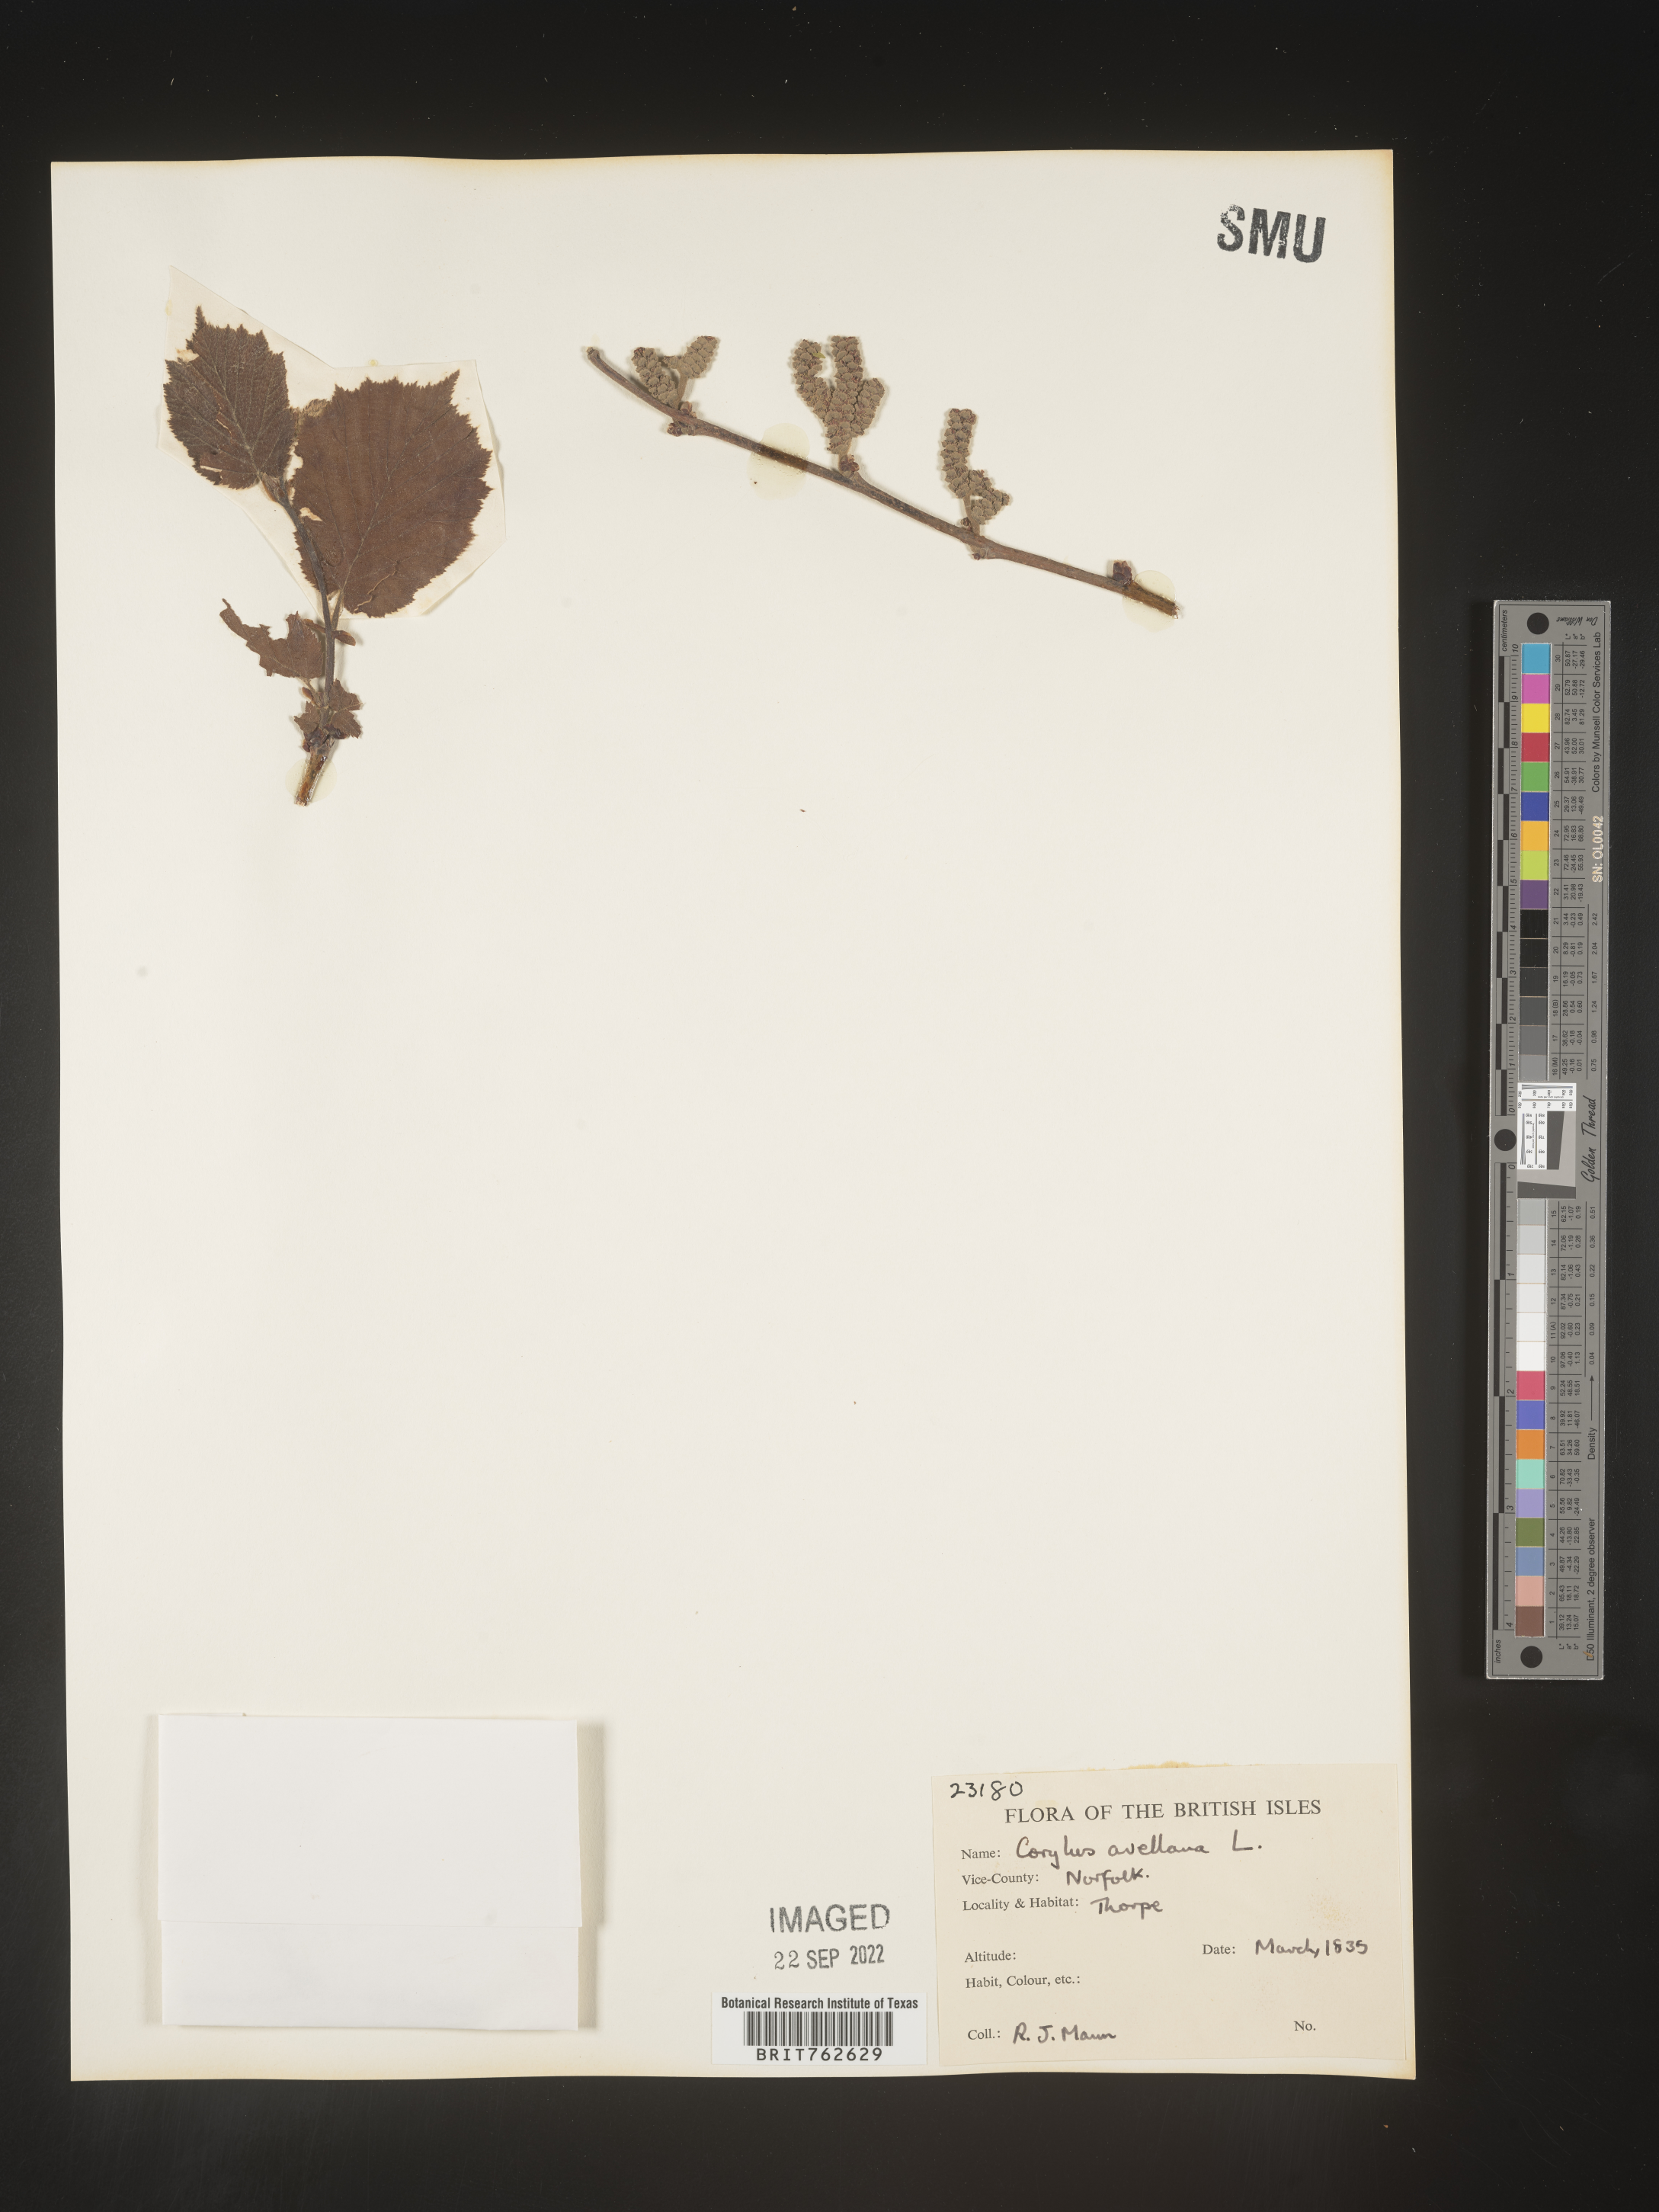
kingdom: Plantae
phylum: Tracheophyta
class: Magnoliopsida
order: Fagales
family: Betulaceae
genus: Corylus
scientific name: Corylus
